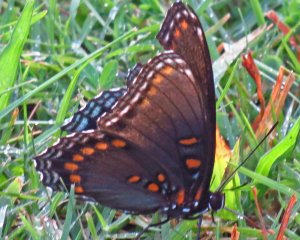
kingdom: Animalia
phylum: Arthropoda
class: Insecta
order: Lepidoptera
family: Nymphalidae
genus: Limenitis
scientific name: Limenitis astyanax
